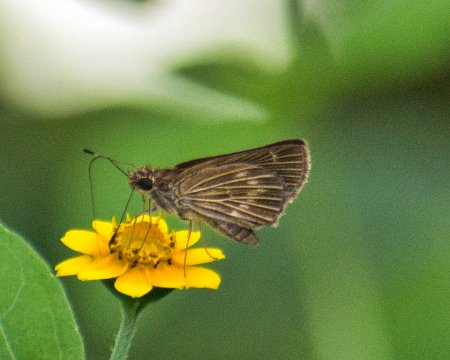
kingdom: Animalia
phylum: Arthropoda
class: Insecta
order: Lepidoptera
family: Hesperiidae
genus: Vehilius
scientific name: Vehilius stictomenes
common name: Pasture Skipper
